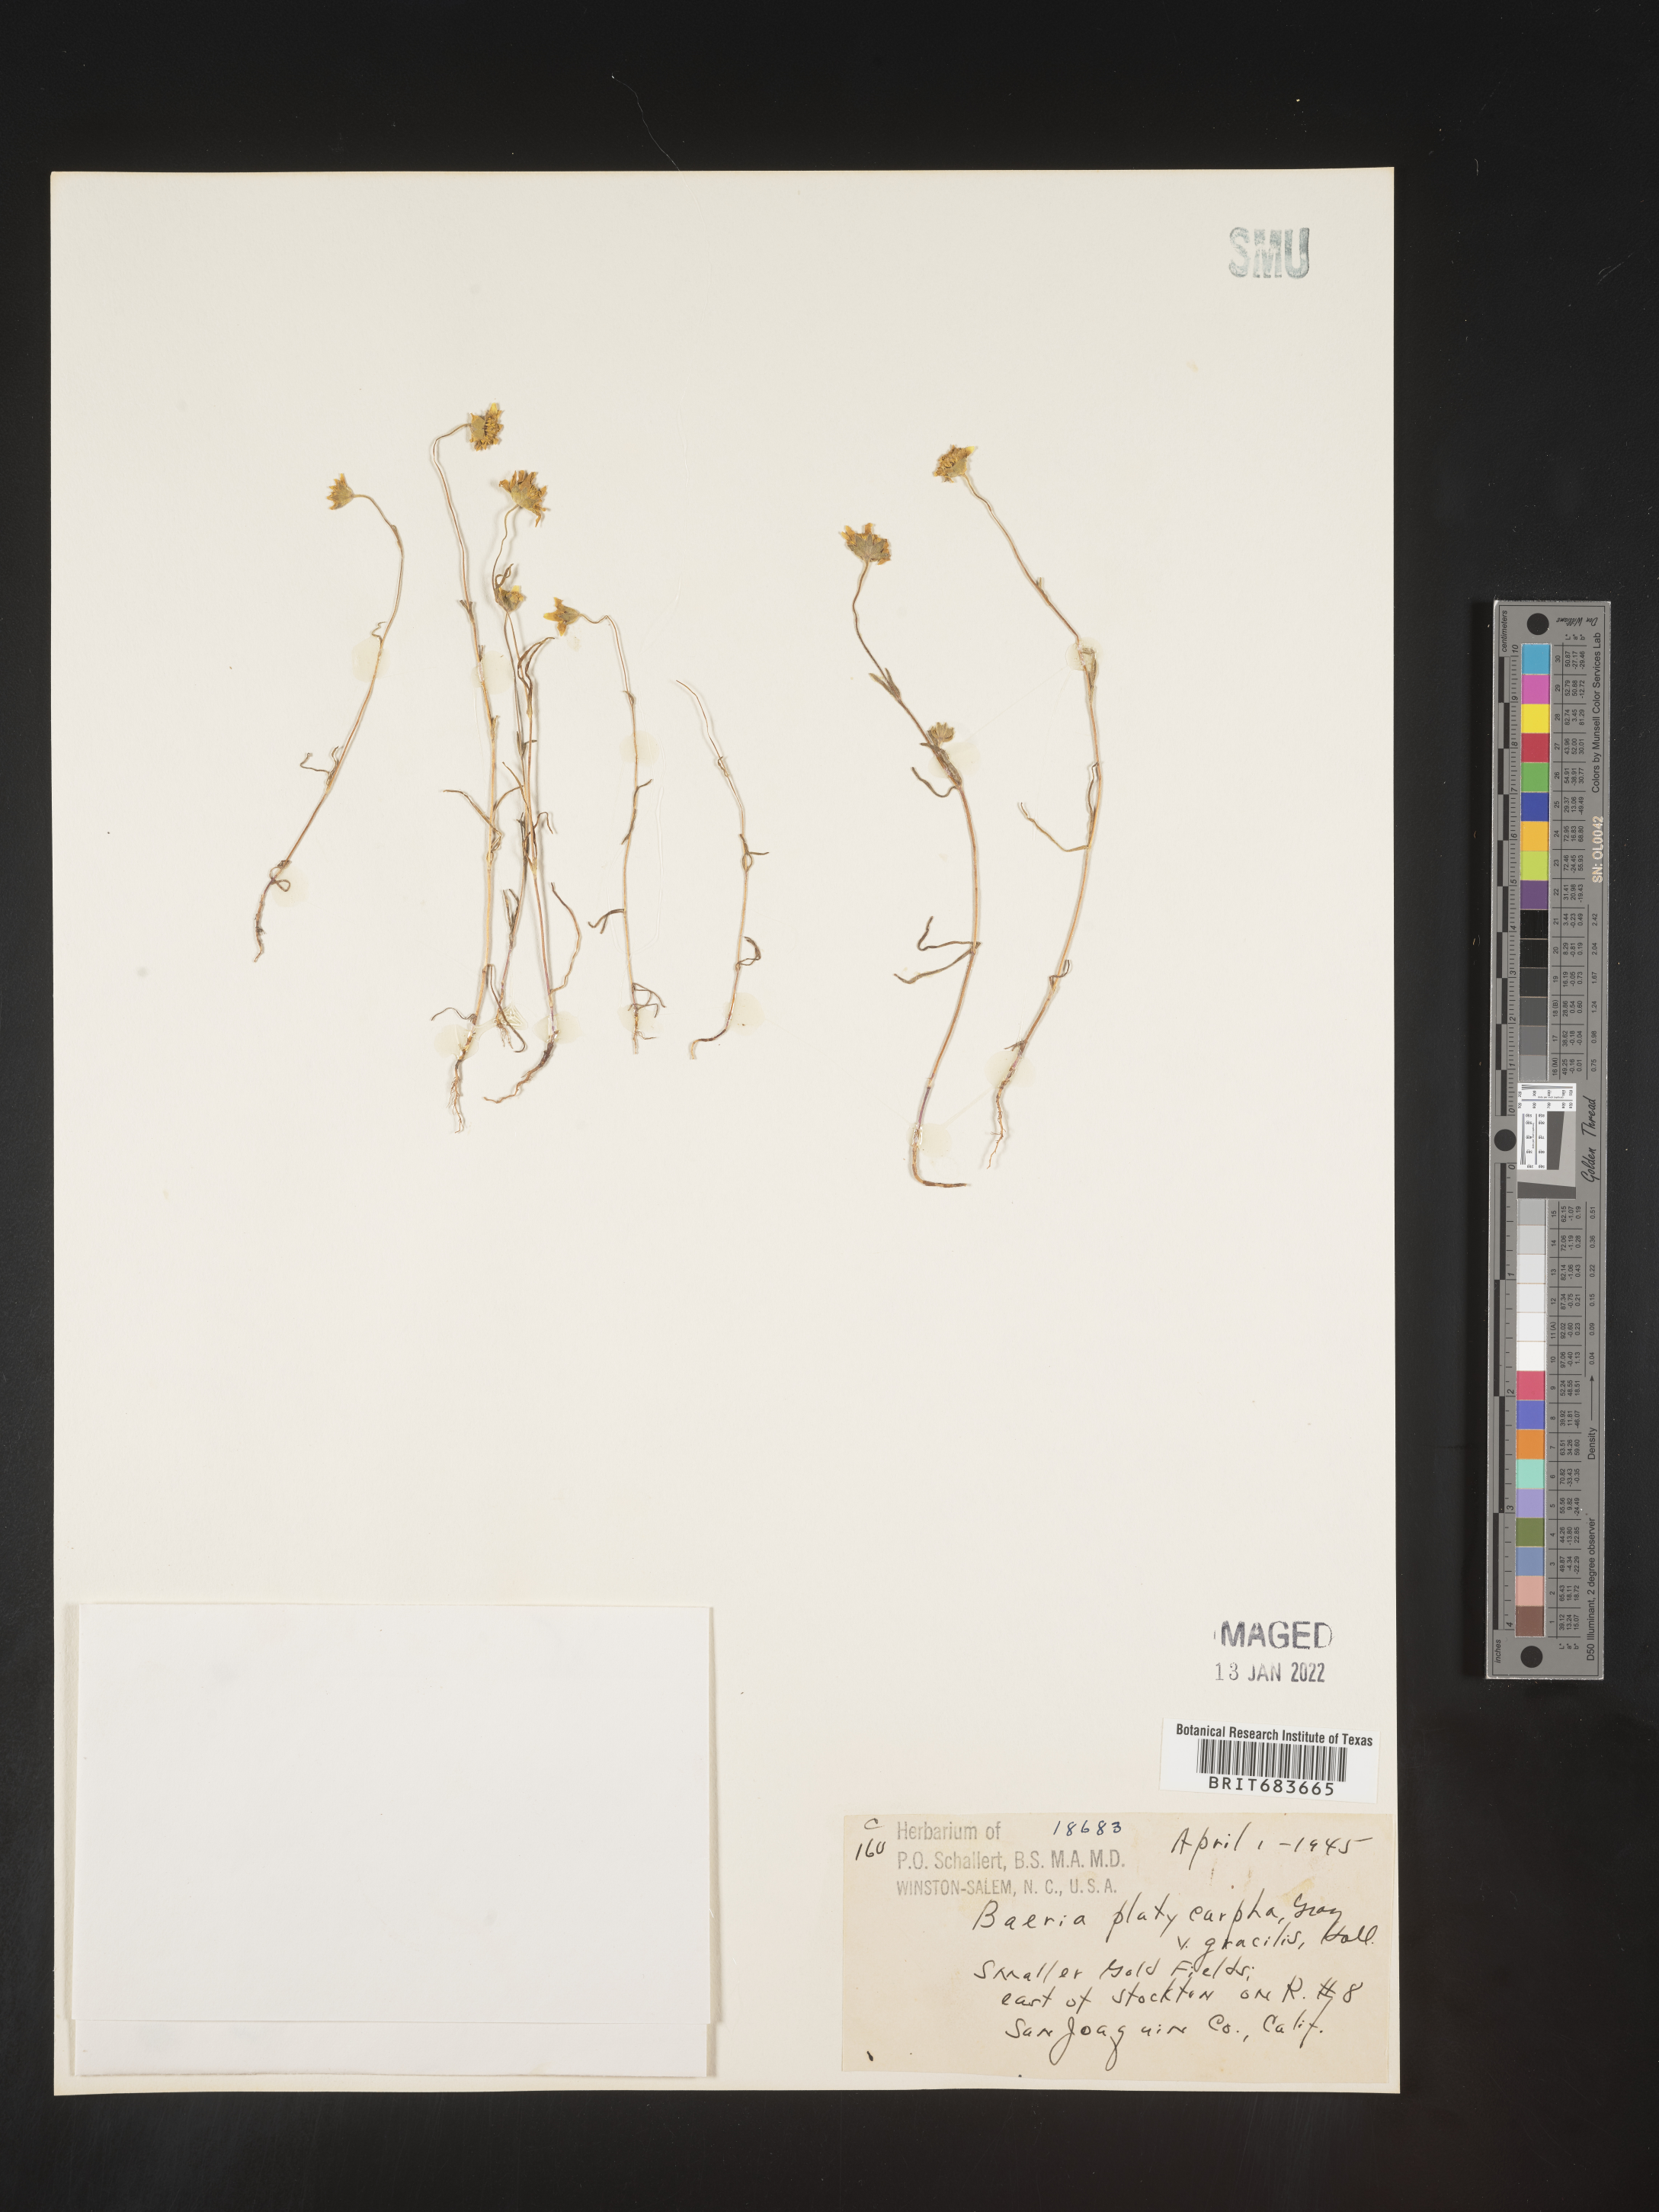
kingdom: Plantae
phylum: Tracheophyta
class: Magnoliopsida
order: Asterales
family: Asteraceae
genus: Lasthenia
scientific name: Lasthenia
